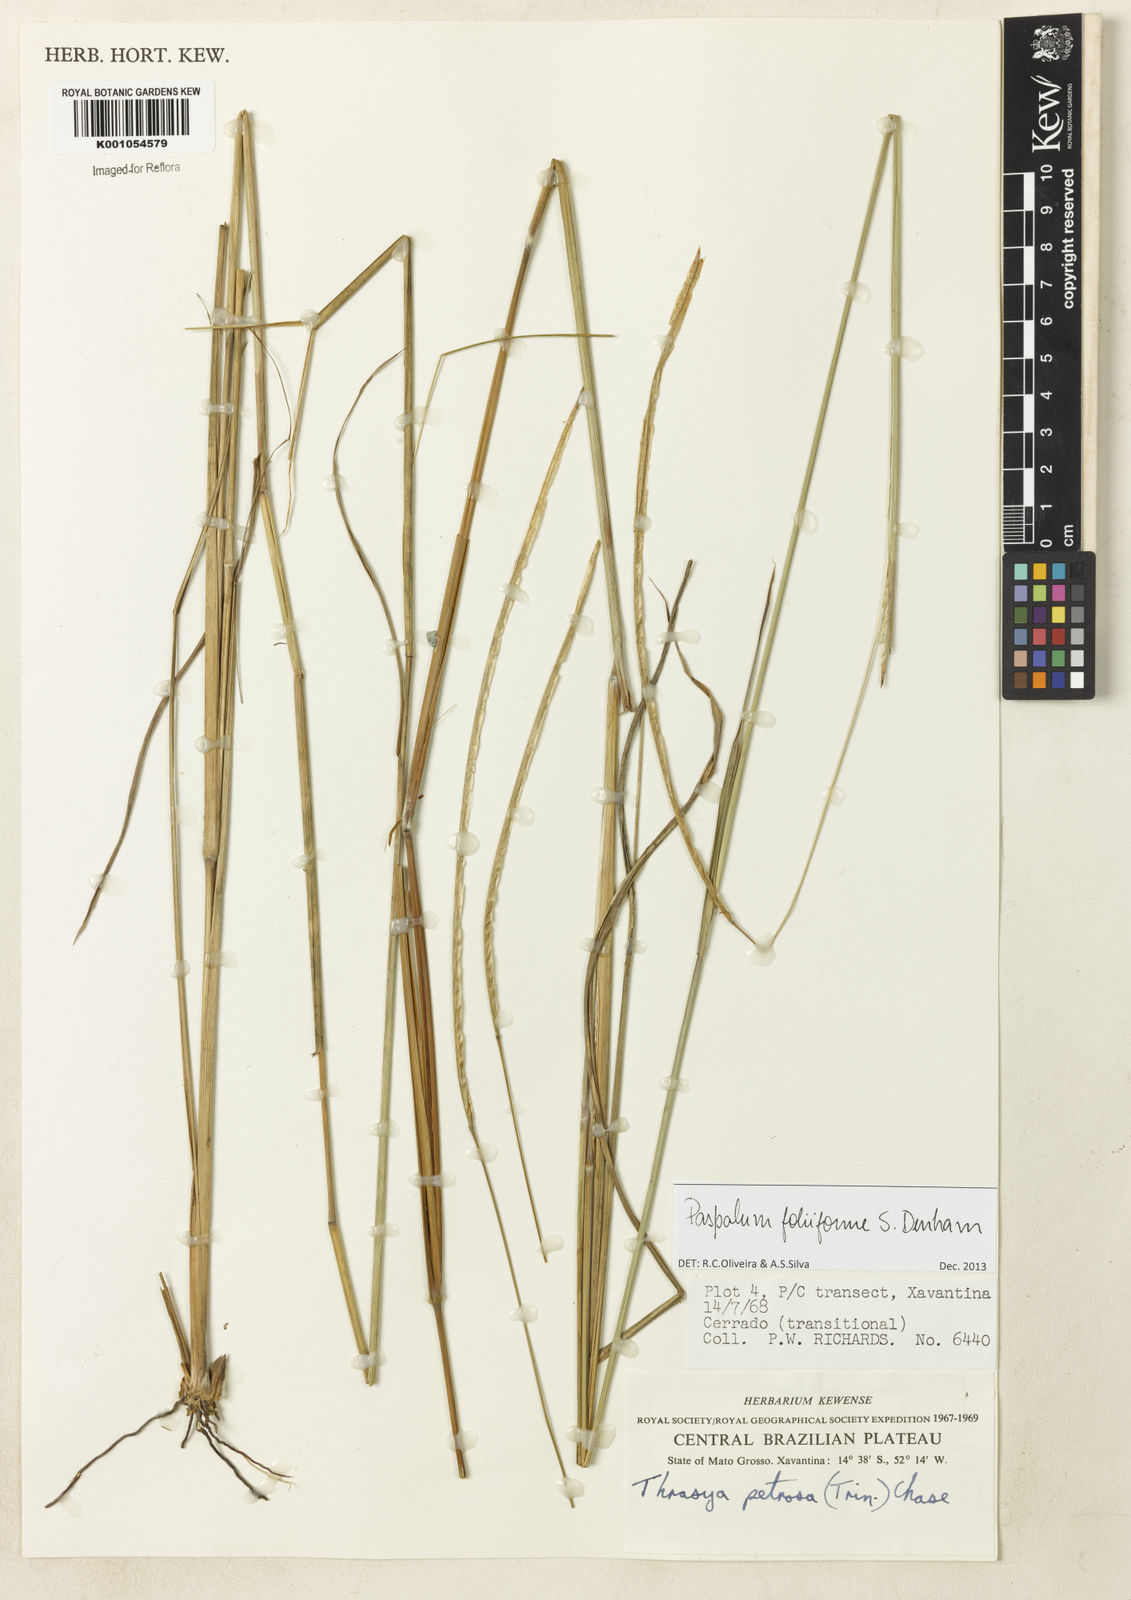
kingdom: Plantae
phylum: Tracheophyta
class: Liliopsida
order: Poales
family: Poaceae
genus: Paspalum
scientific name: Paspalum foliiforme
